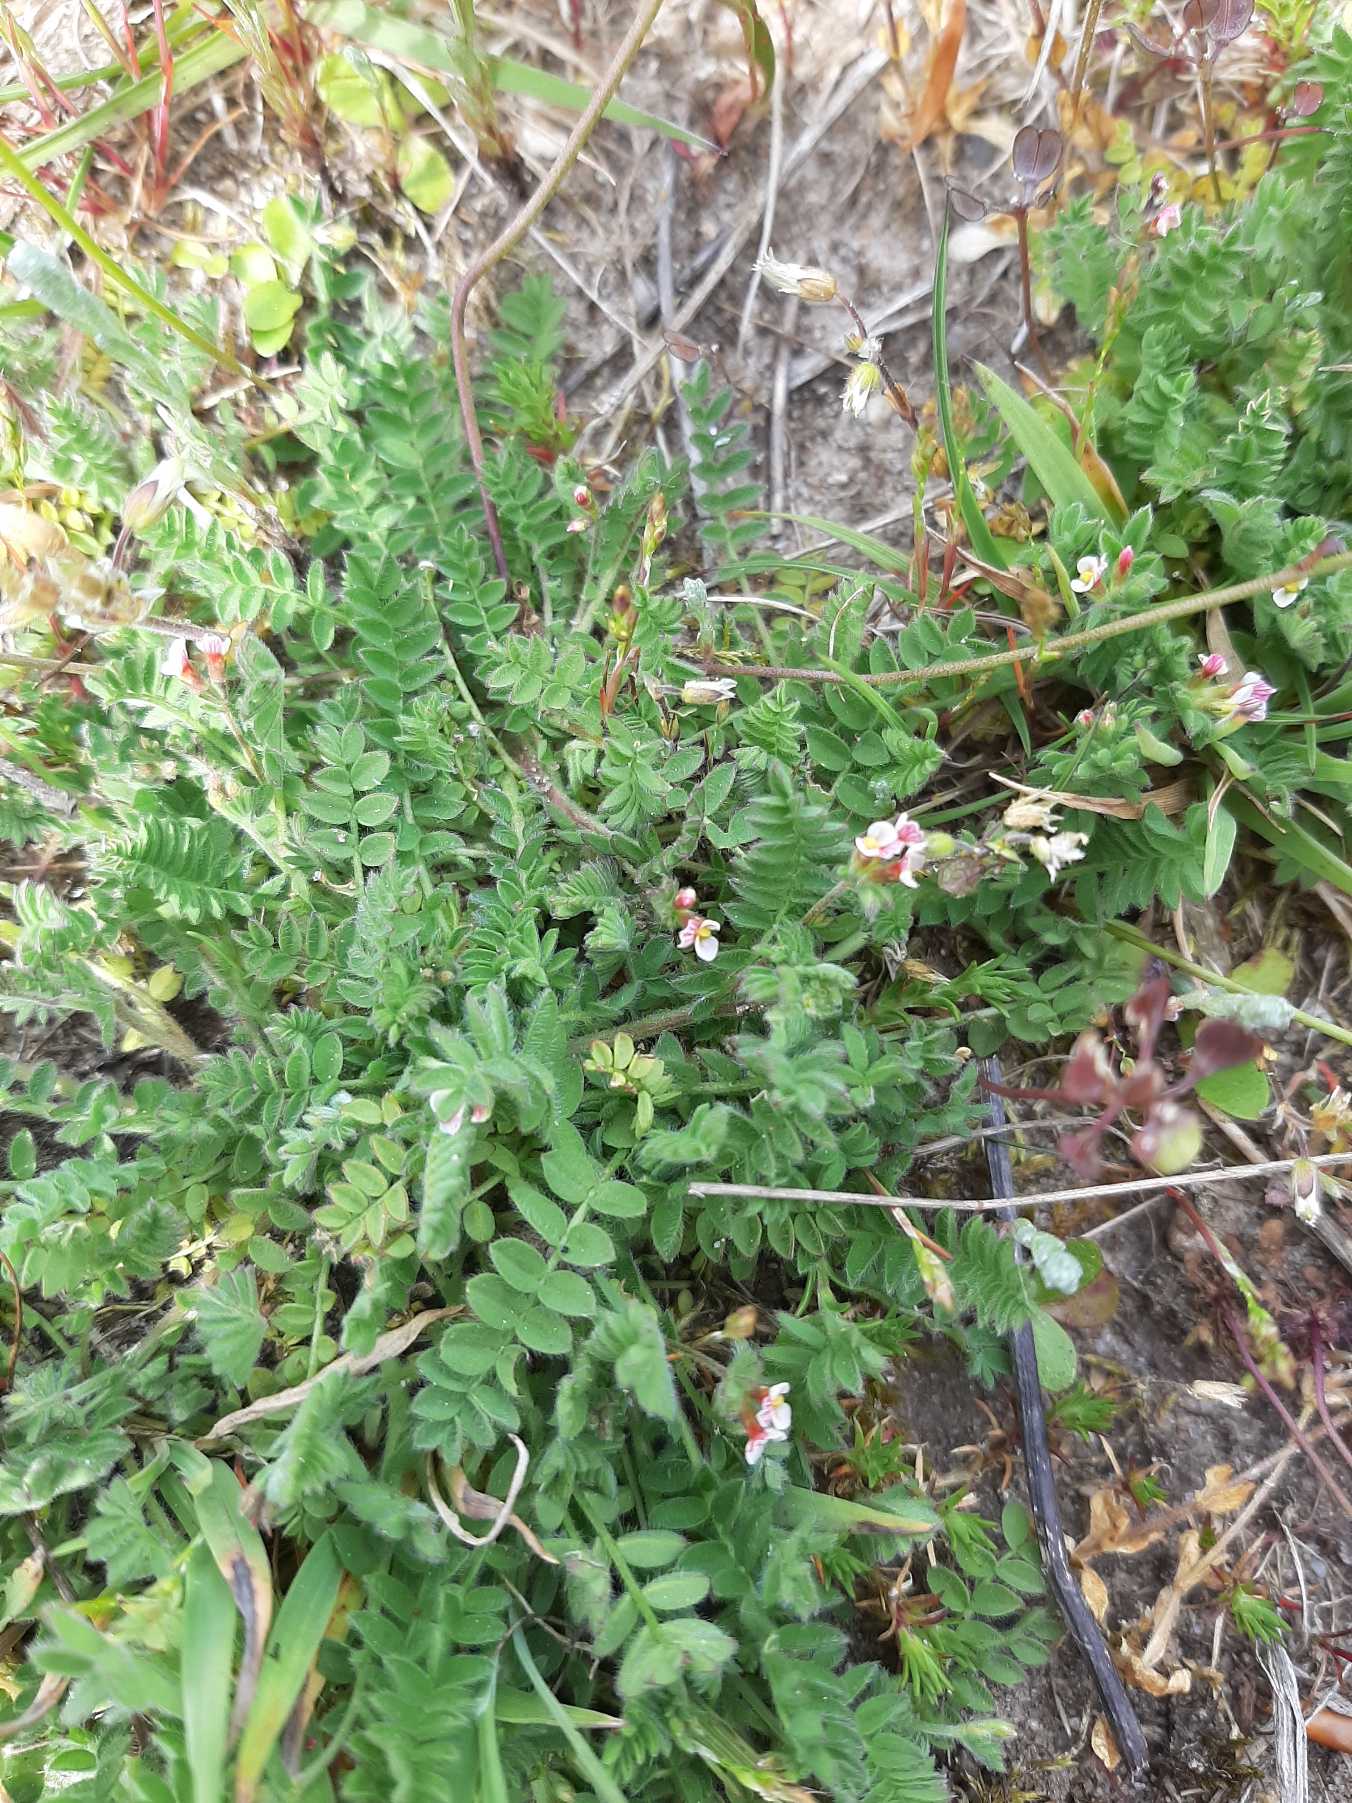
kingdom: Plantae
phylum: Tracheophyta
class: Magnoliopsida
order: Fabales
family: Fabaceae
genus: Ornithopus
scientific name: Ornithopus perpusillus
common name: Liden fugleklo
